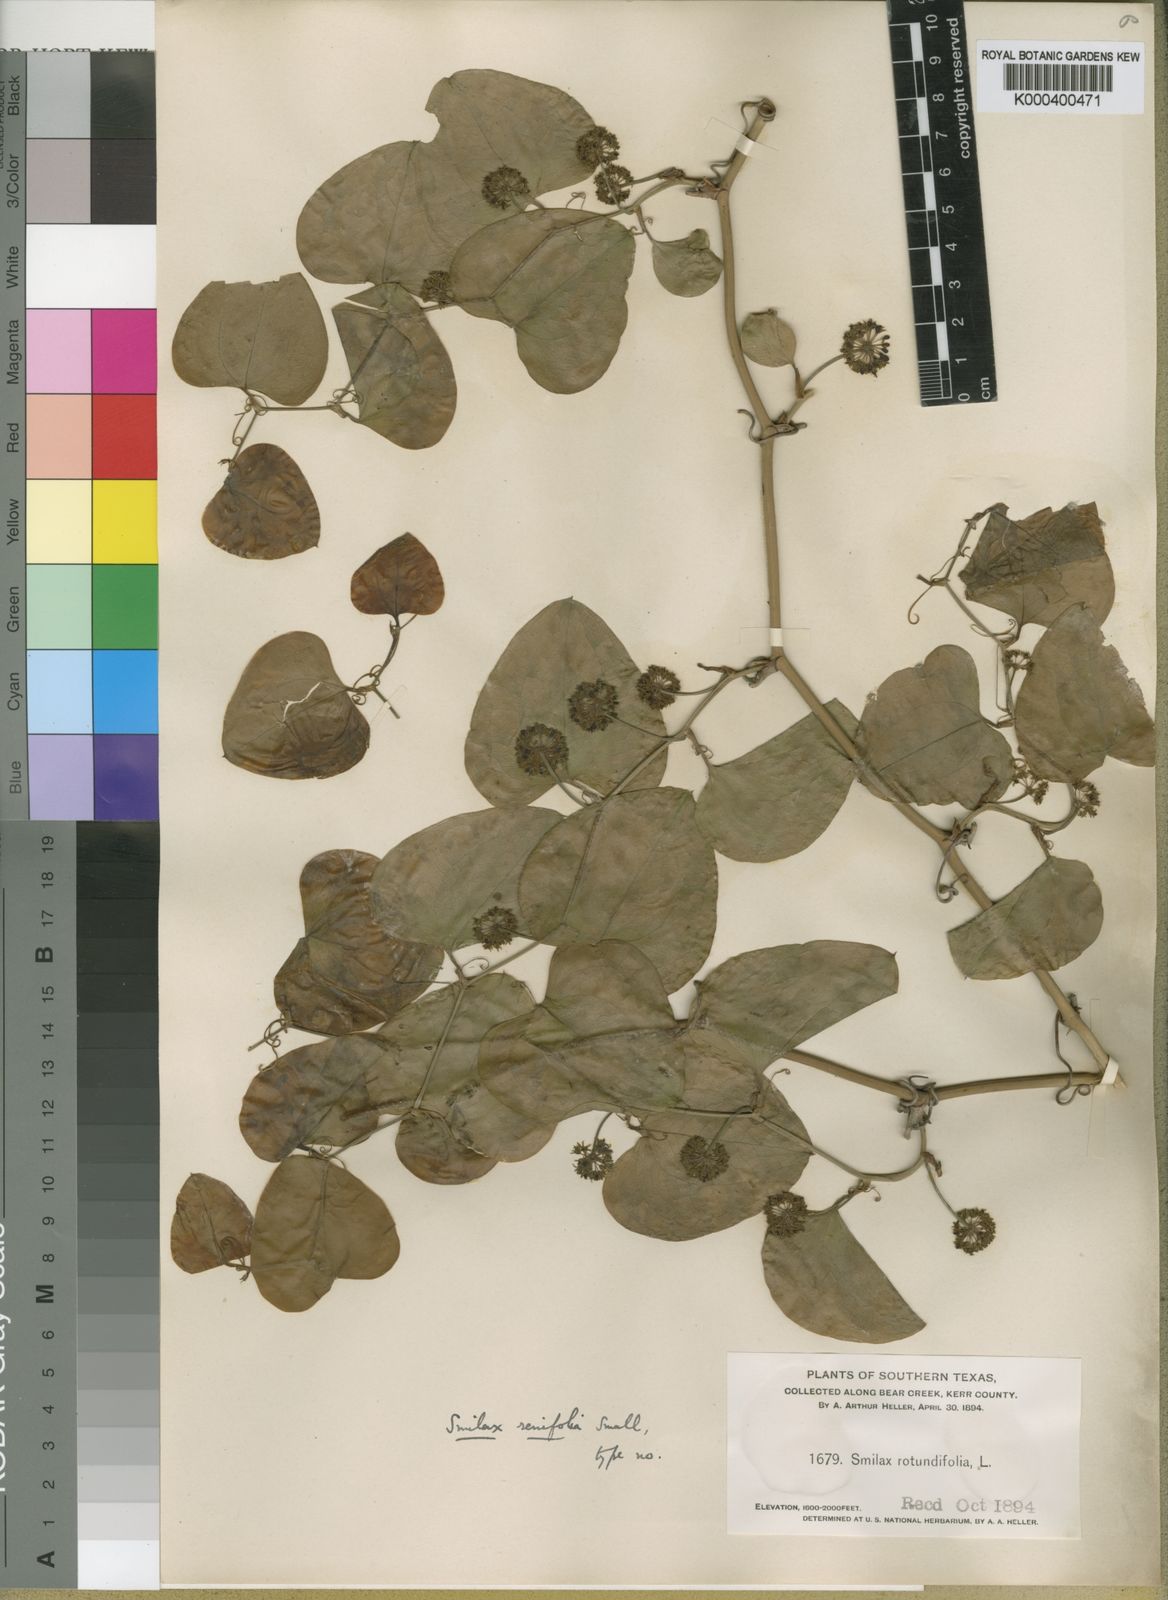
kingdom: Plantae
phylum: Tracheophyta
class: Liliopsida
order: Liliales
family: Smilacaceae
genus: Smilax
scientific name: Smilax bona-nox
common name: Catbrier
